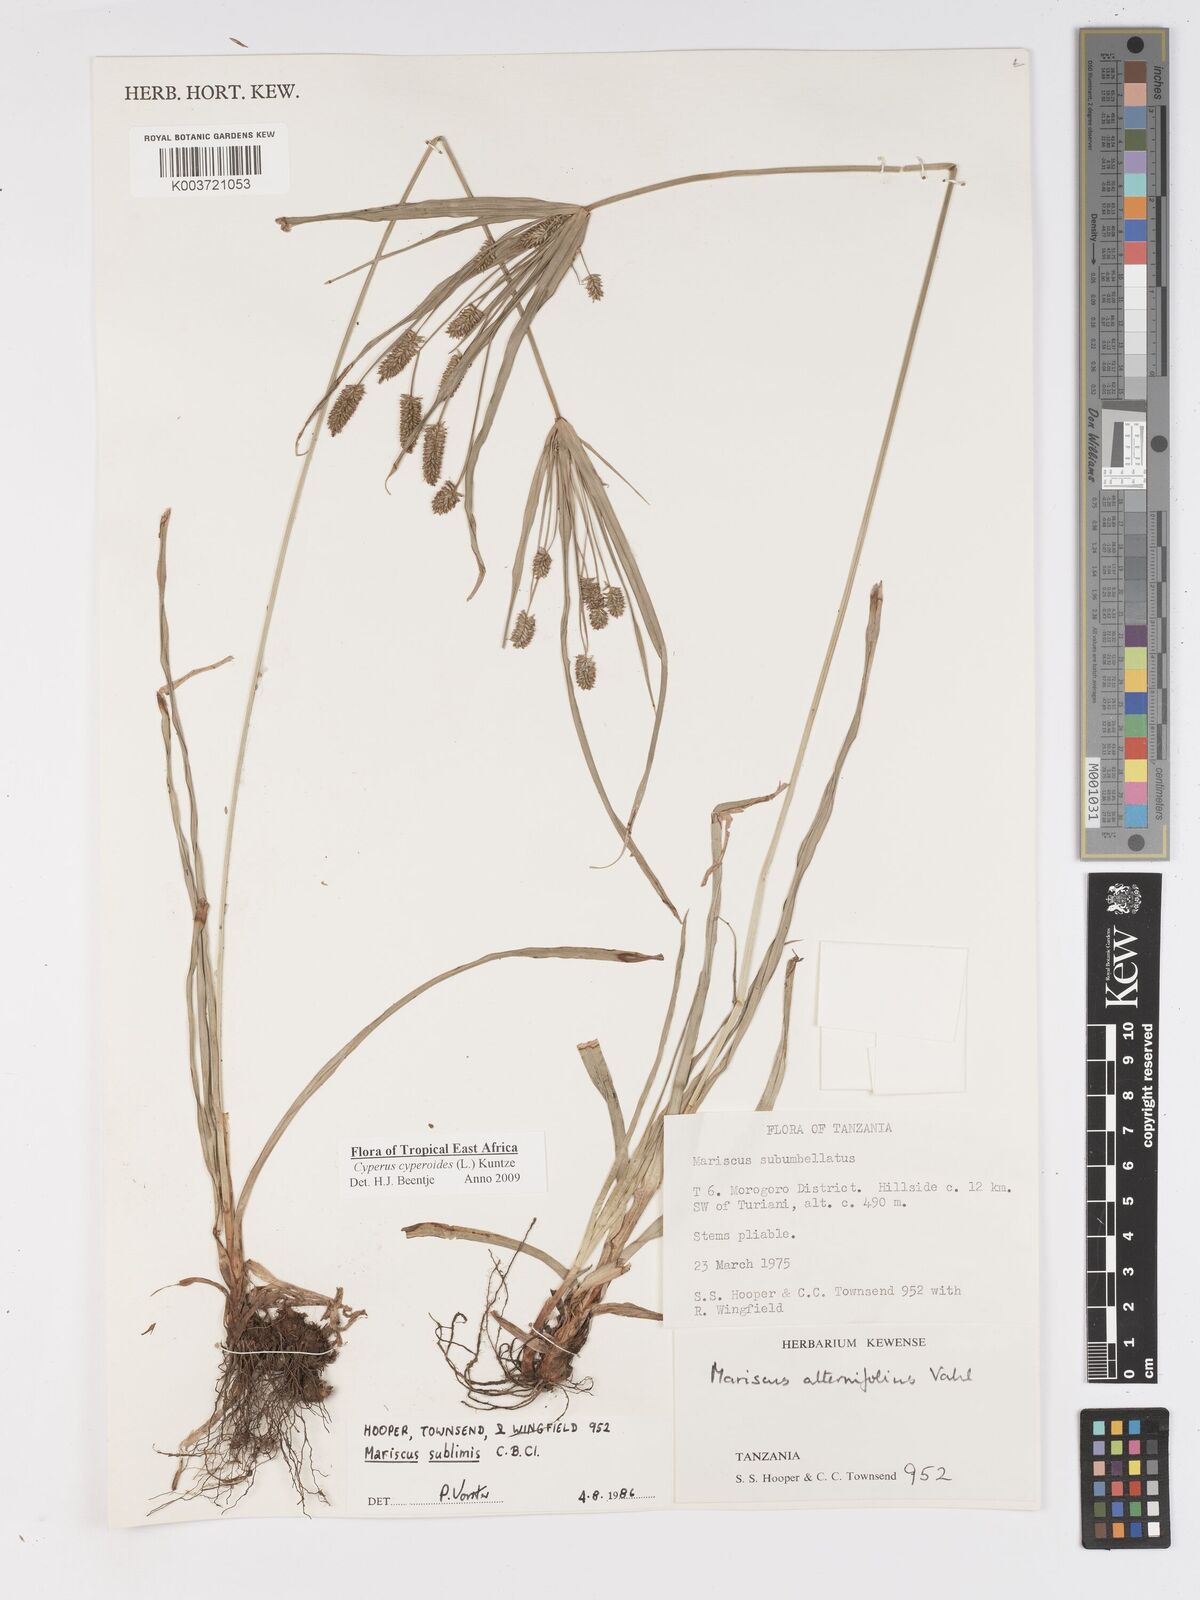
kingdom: Plantae
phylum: Tracheophyta
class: Liliopsida
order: Poales
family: Cyperaceae
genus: Cyperus
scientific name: Cyperus cyperoides
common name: Pacific island flat sedge
